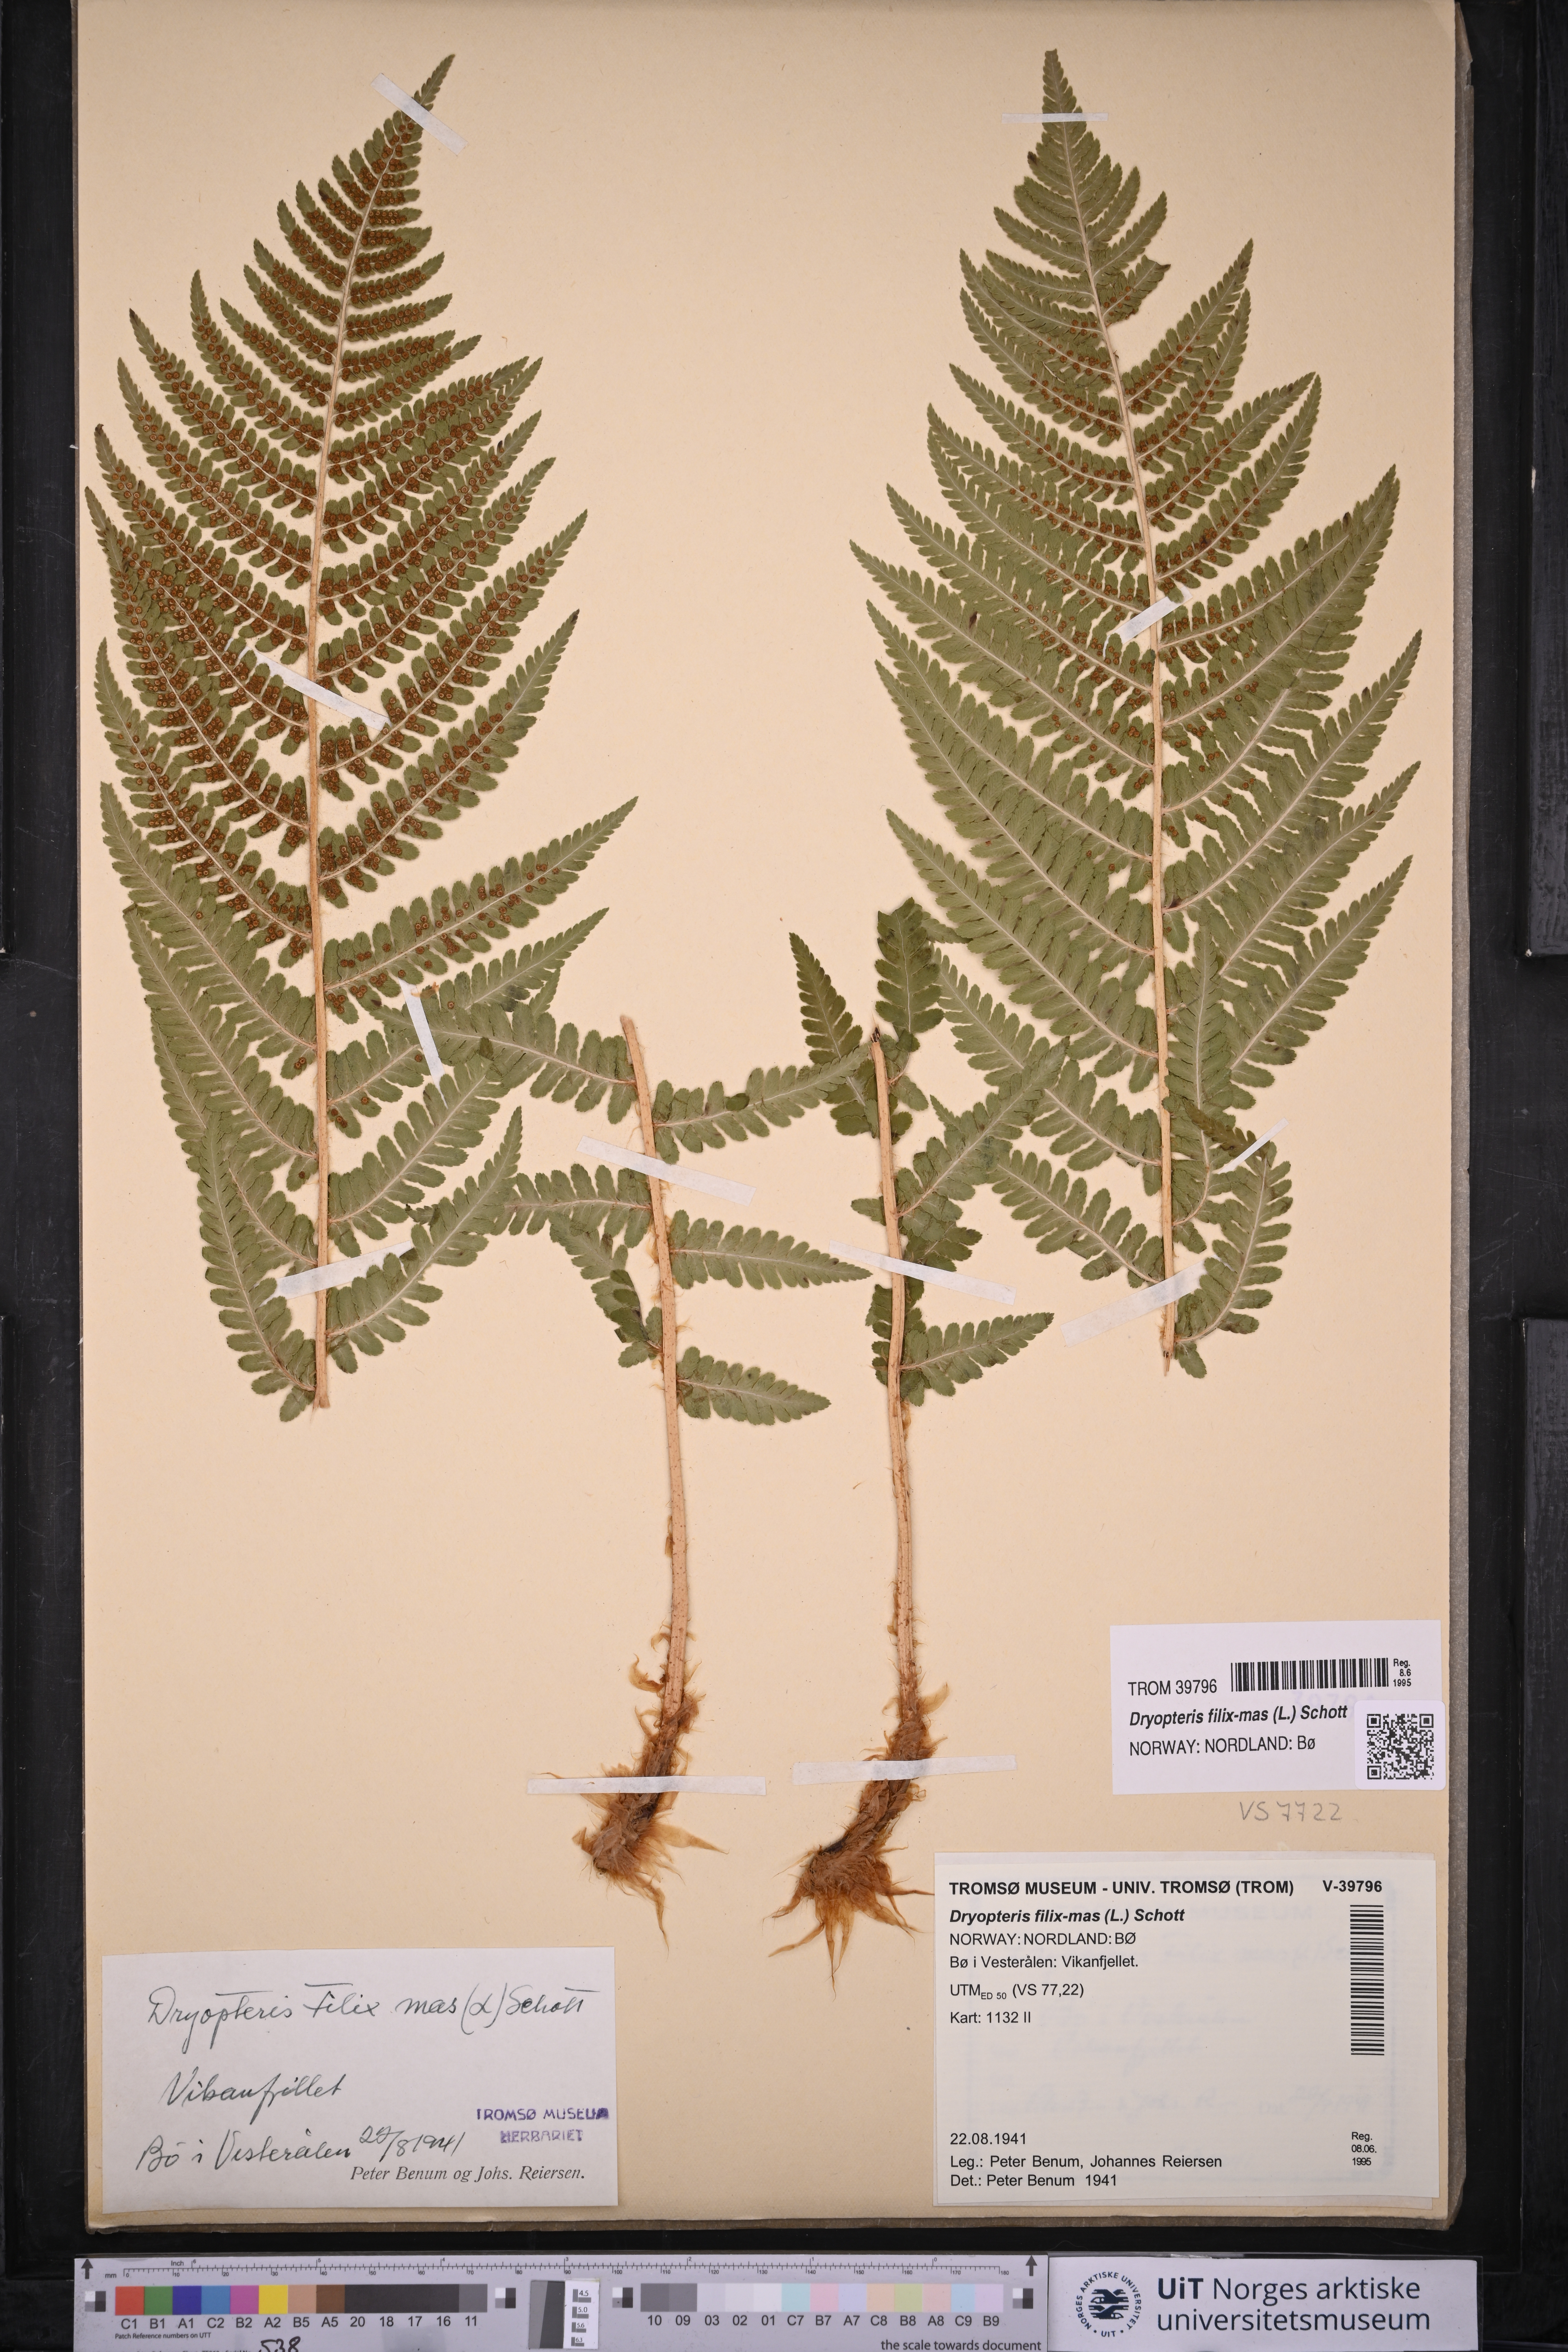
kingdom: Plantae
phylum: Tracheophyta
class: Polypodiopsida
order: Polypodiales
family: Dryopteridaceae
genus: Dryopteris
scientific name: Dryopteris filix-mas
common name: Male fern
